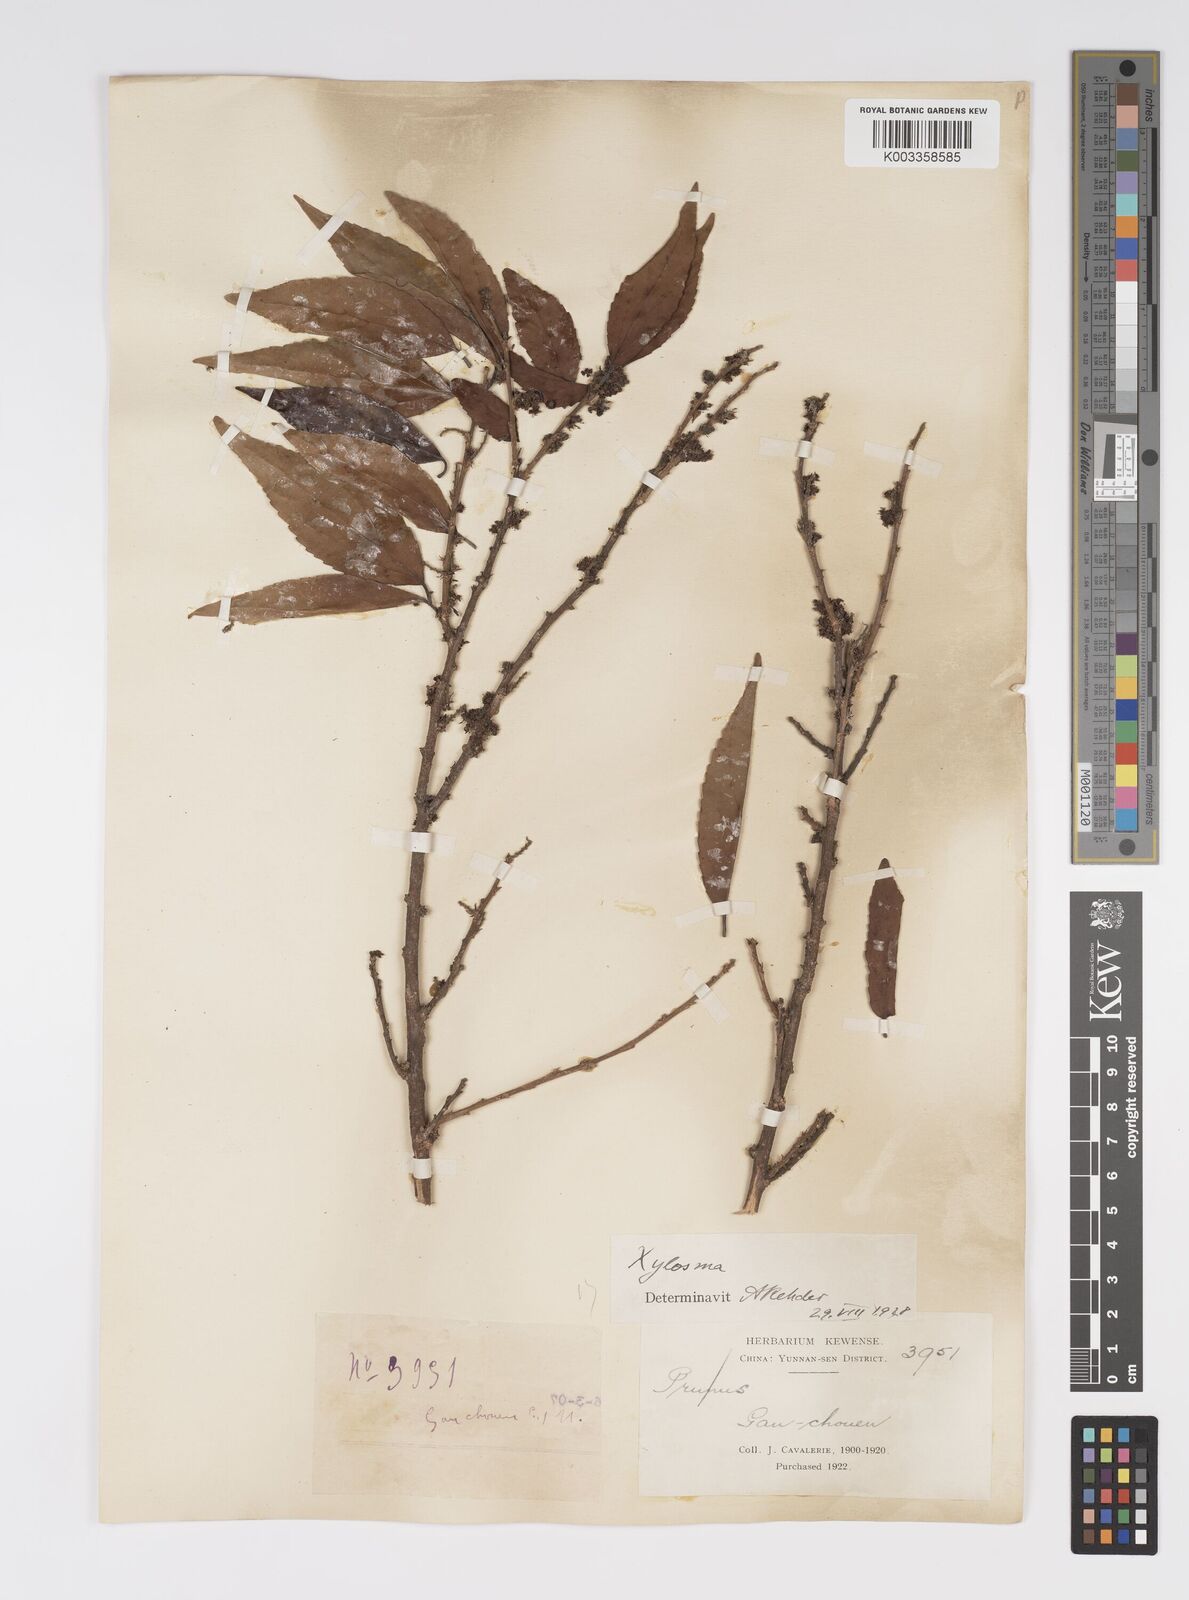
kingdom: Plantae
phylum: Tracheophyta
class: Magnoliopsida
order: Malpighiales
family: Salicaceae
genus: Xylosma
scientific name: Xylosma
